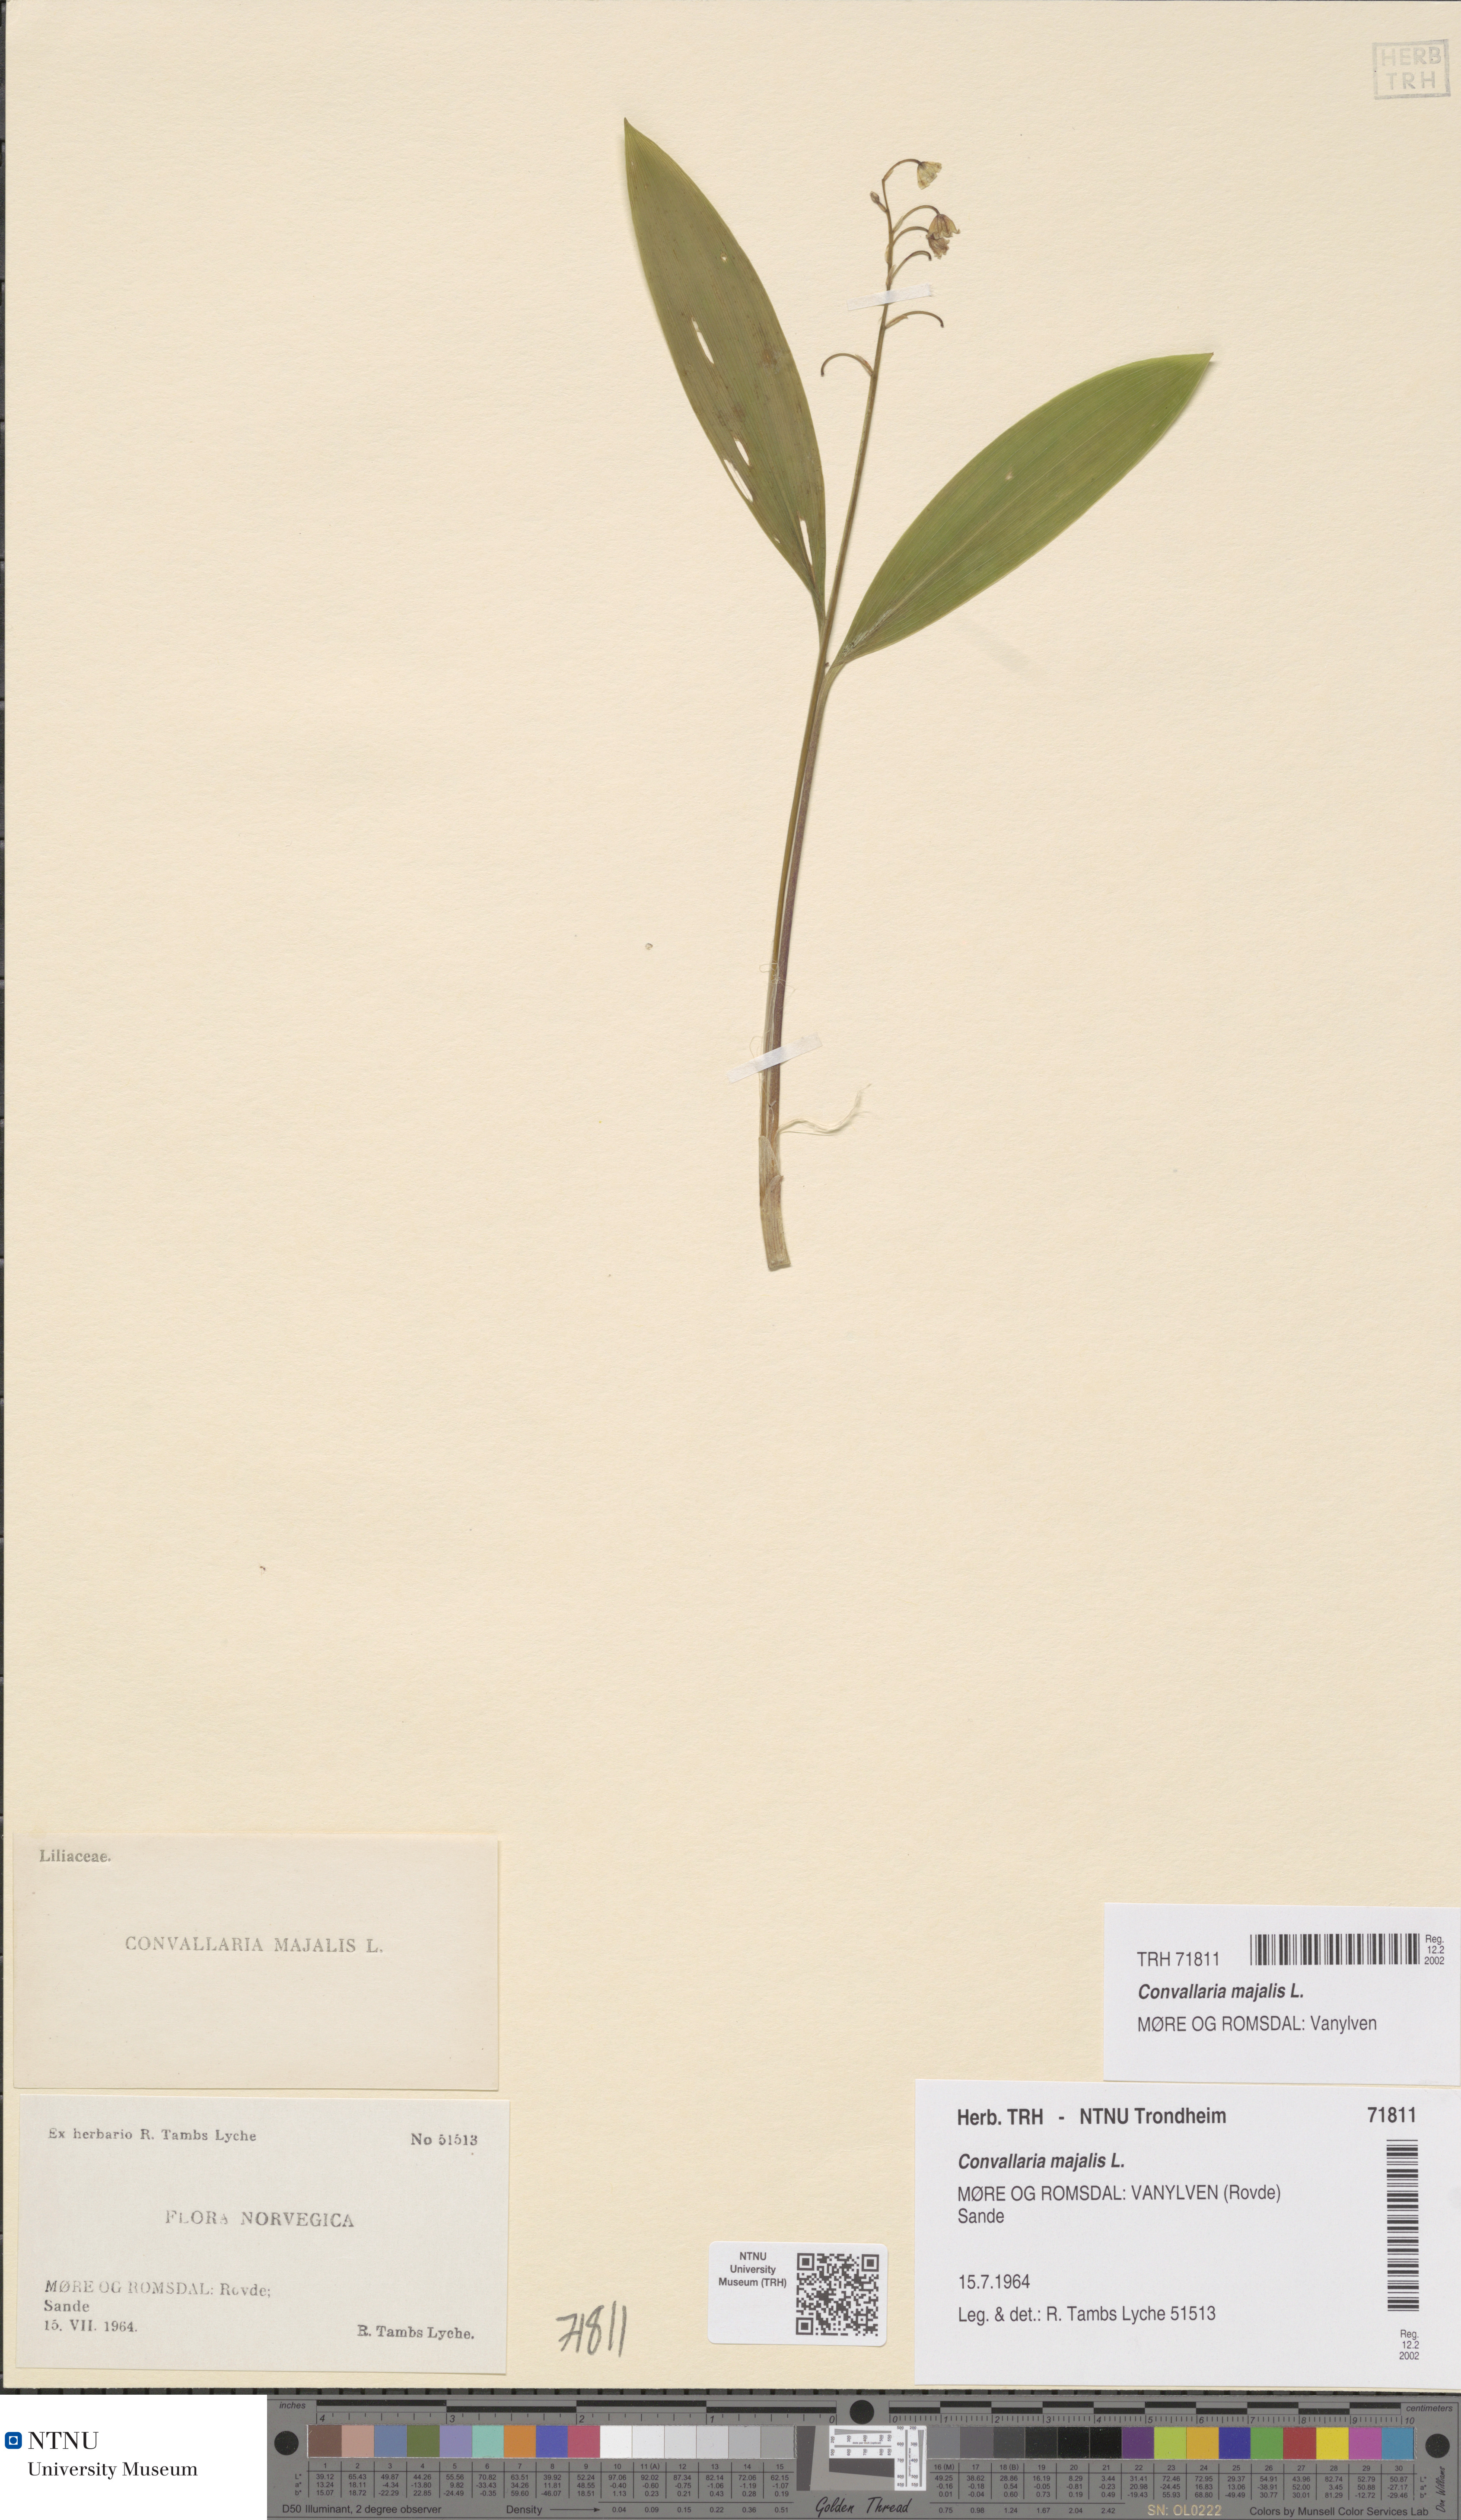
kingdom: Plantae
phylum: Tracheophyta
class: Liliopsida
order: Asparagales
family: Asparagaceae
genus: Convallaria
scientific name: Convallaria majalis
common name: Lily-of-the-valley
